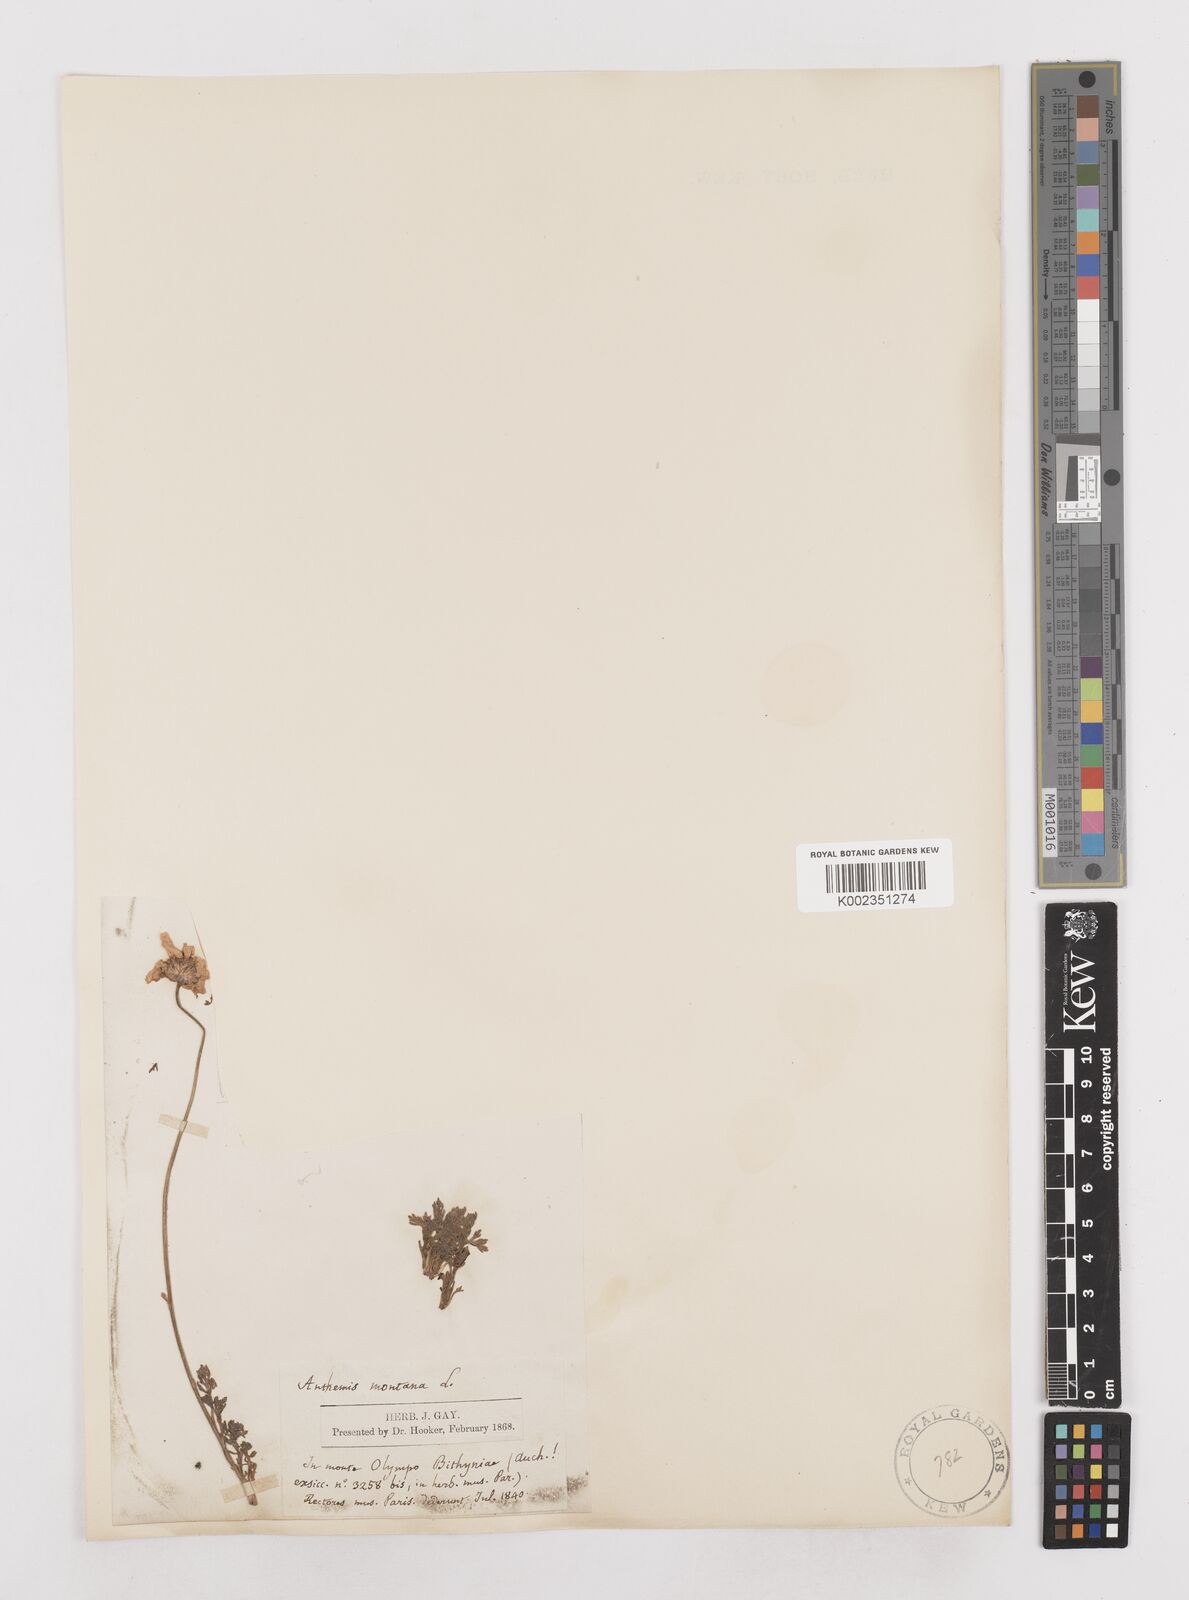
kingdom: Plantae
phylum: Tracheophyta
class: Magnoliopsida
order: Asterales
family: Asteraceae
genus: Anthemis
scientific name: Anthemis cretica
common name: Mountain dog-daisy
